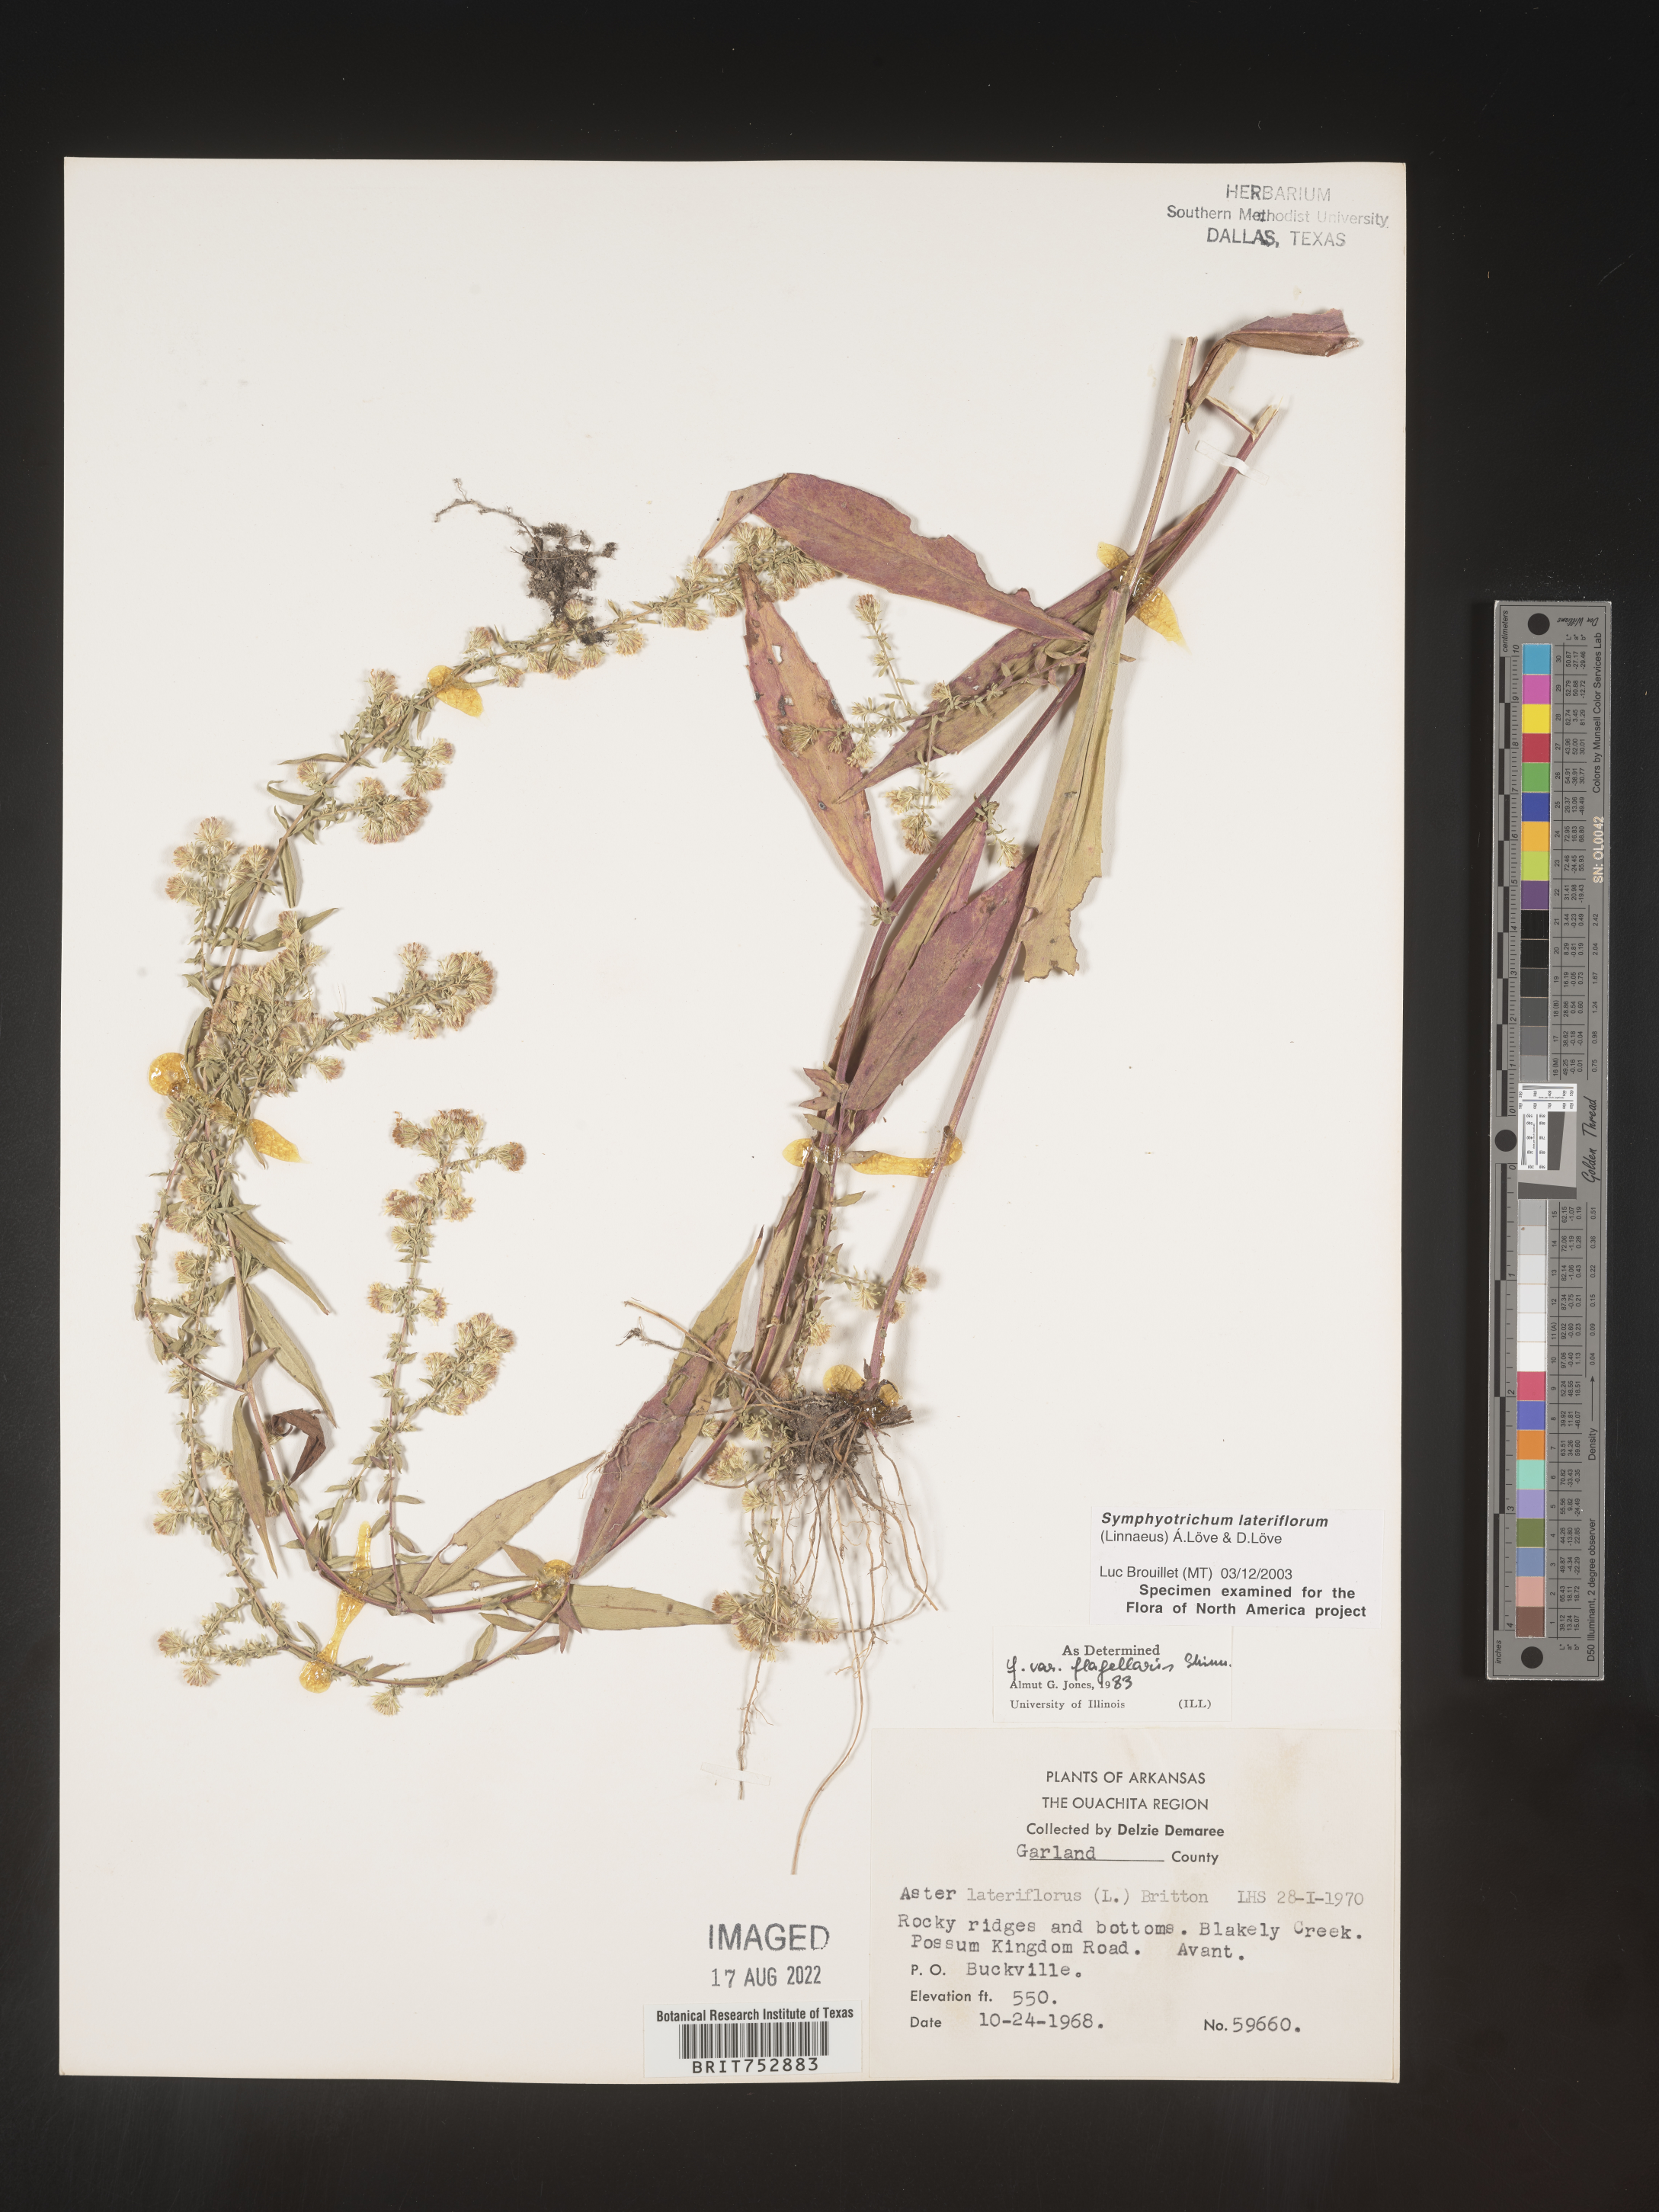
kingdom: Plantae
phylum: Tracheophyta
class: Magnoliopsida
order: Asterales
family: Asteraceae
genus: Symphyotrichum
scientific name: Symphyotrichum lateriflorum
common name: Calico aster
